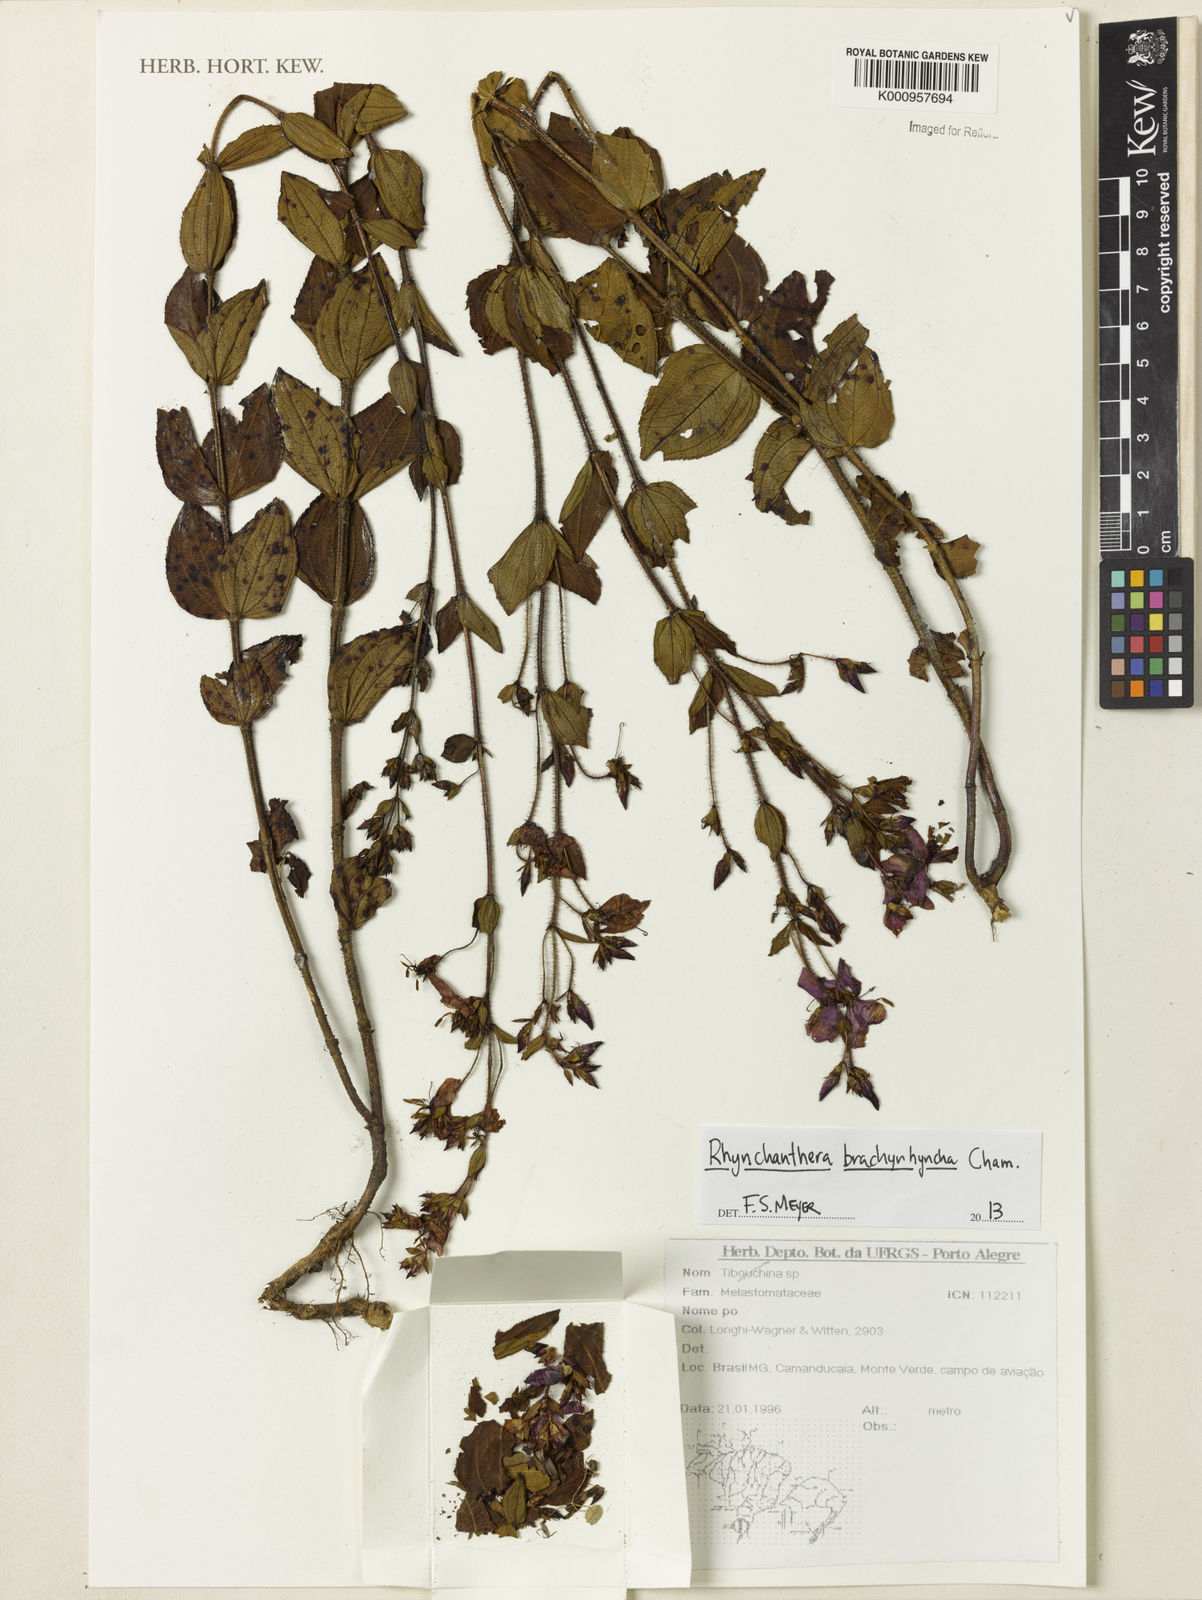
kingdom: Plantae
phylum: Tracheophyta
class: Magnoliopsida
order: Myrtales
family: Melastomataceae
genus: Rhynchanthera
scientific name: Rhynchanthera brachyrhyncha
